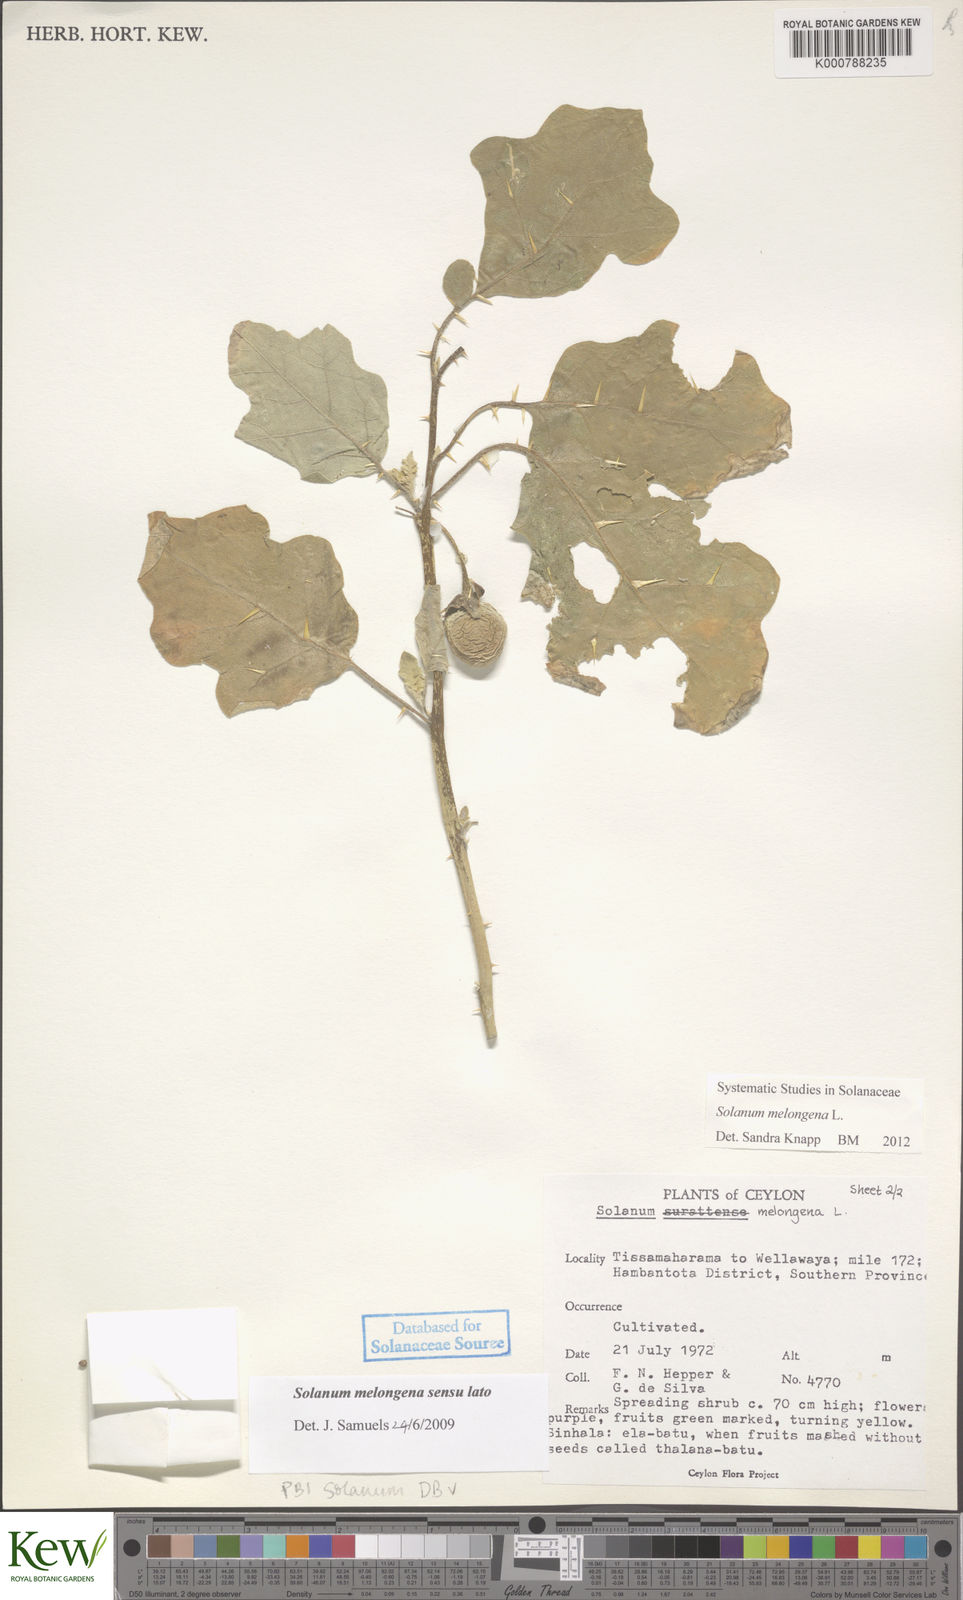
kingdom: Plantae
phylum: Tracheophyta
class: Magnoliopsida
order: Solanales
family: Solanaceae
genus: Solanum
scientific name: Solanum melongena
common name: Eggplant
